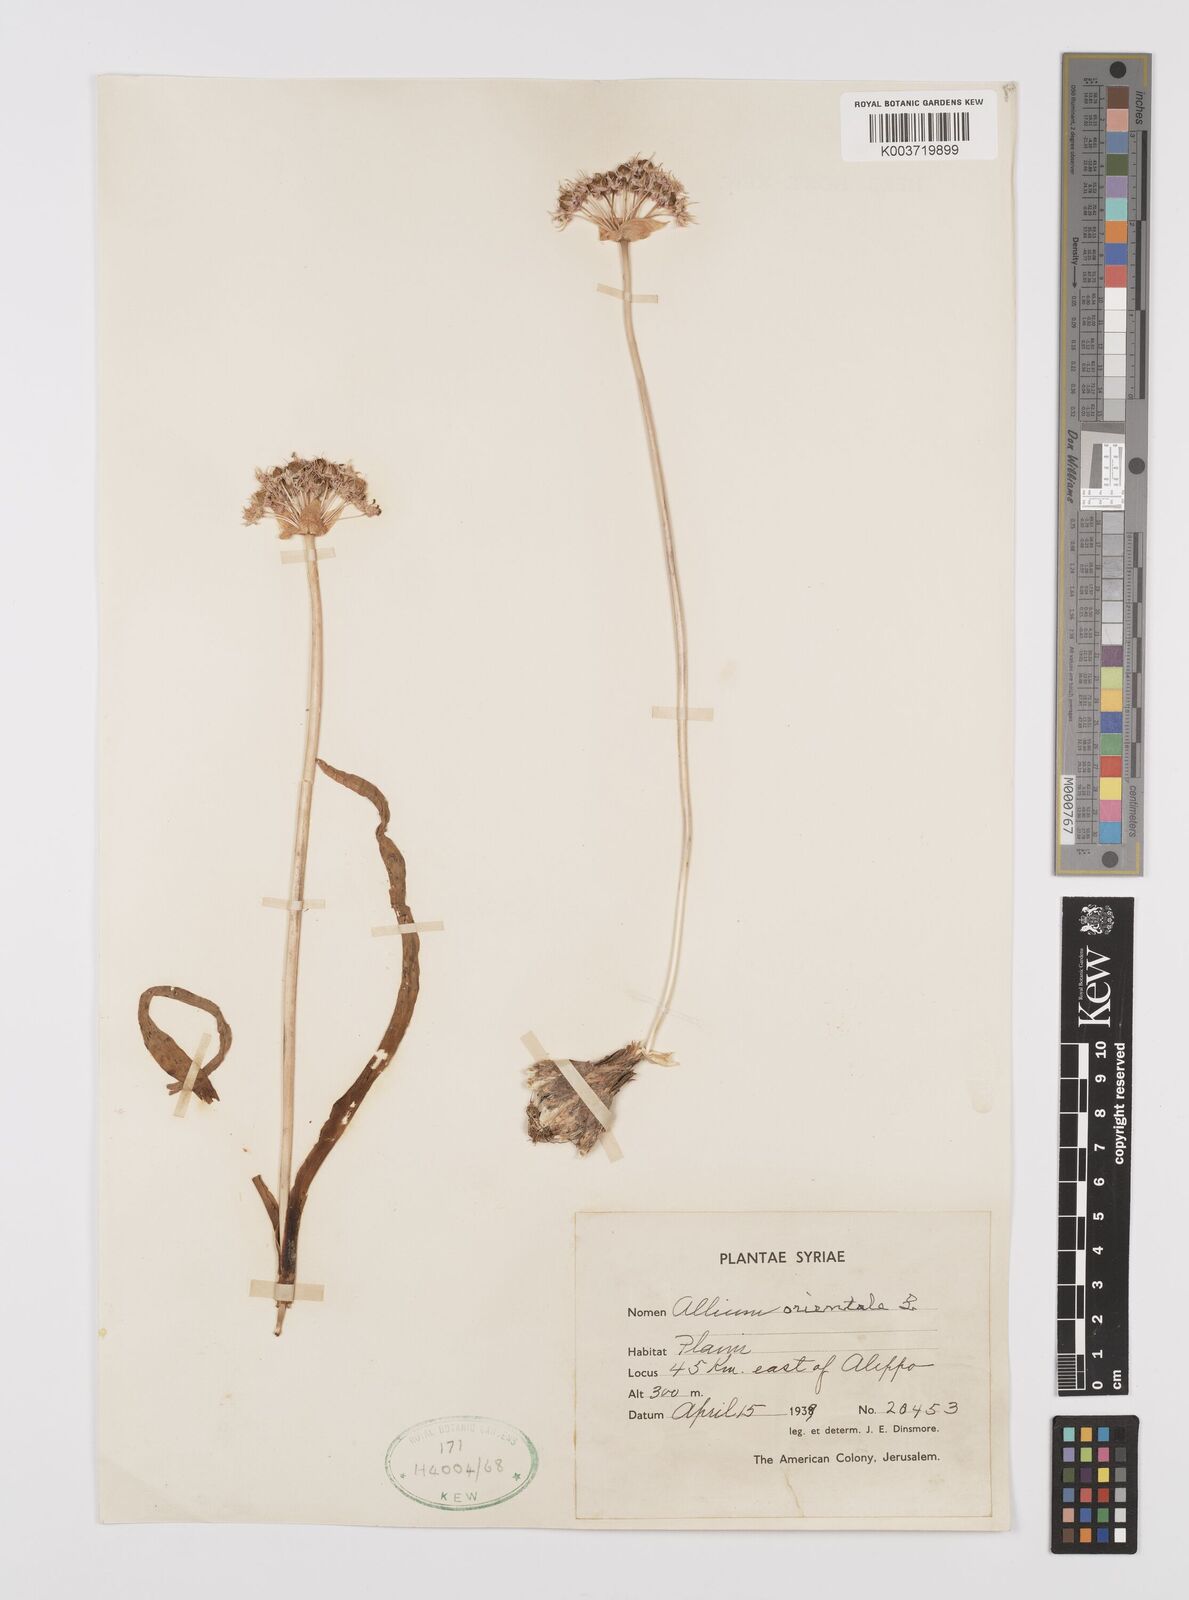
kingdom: Plantae
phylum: Tracheophyta
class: Liliopsida
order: Asparagales
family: Amaryllidaceae
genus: Allium
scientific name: Allium orientale
